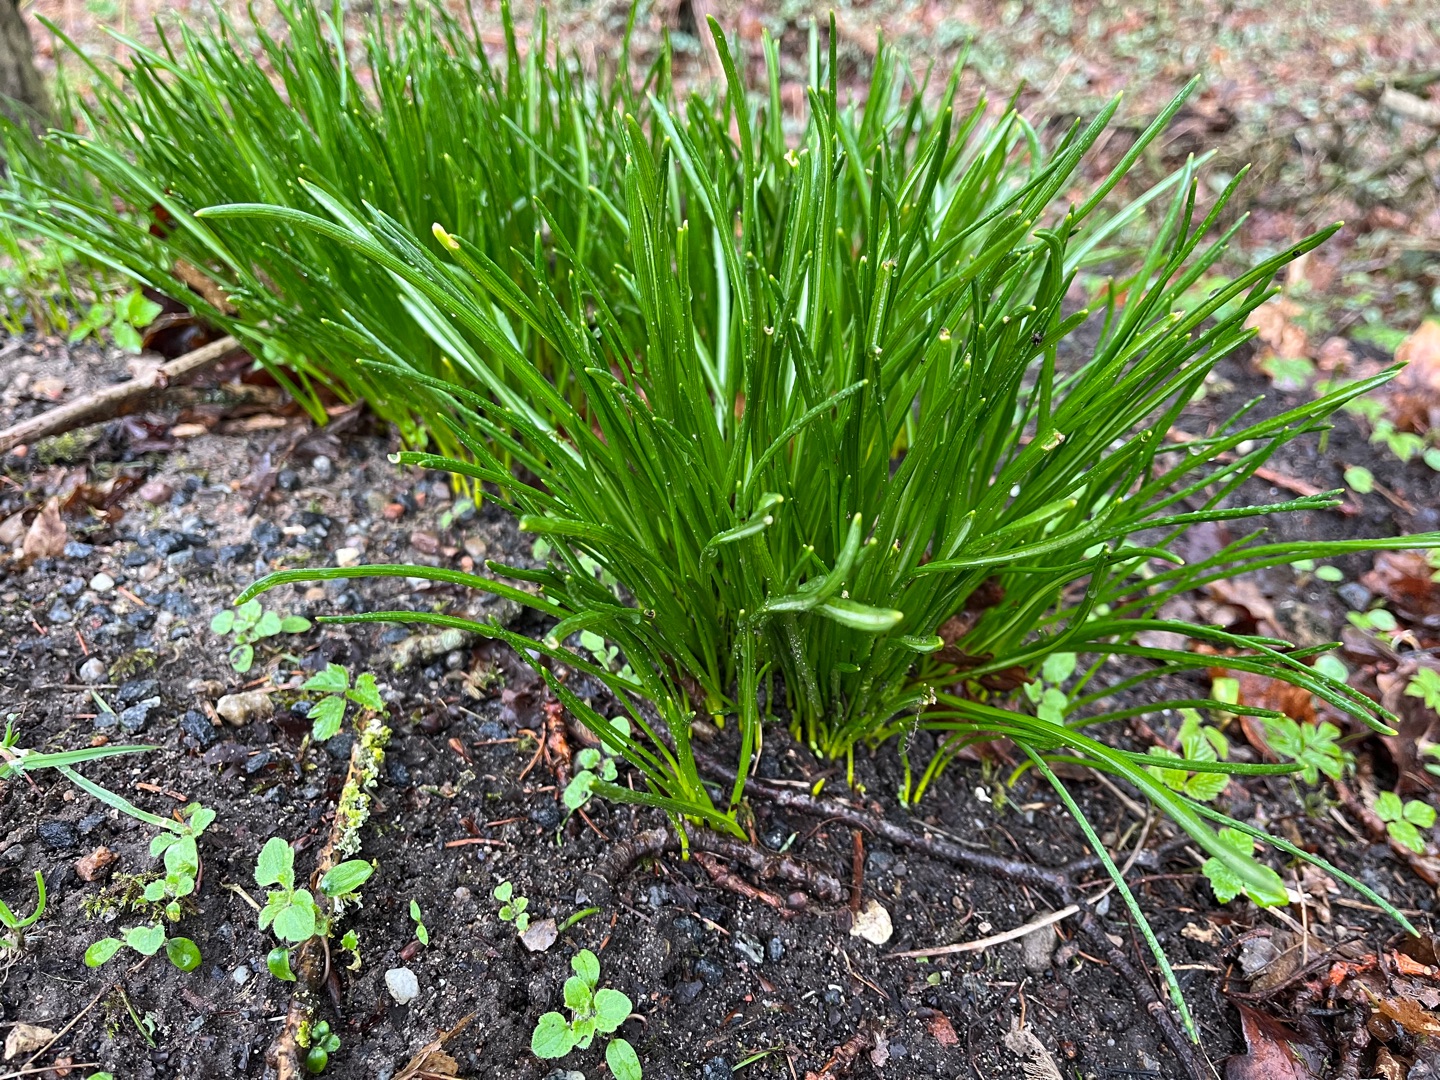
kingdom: Plantae
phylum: Tracheophyta
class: Liliopsida
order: Asparagales
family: Asparagaceae
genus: Ornithogalum
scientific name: Ornithogalum umbellatum
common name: Kost-fuglemælk
